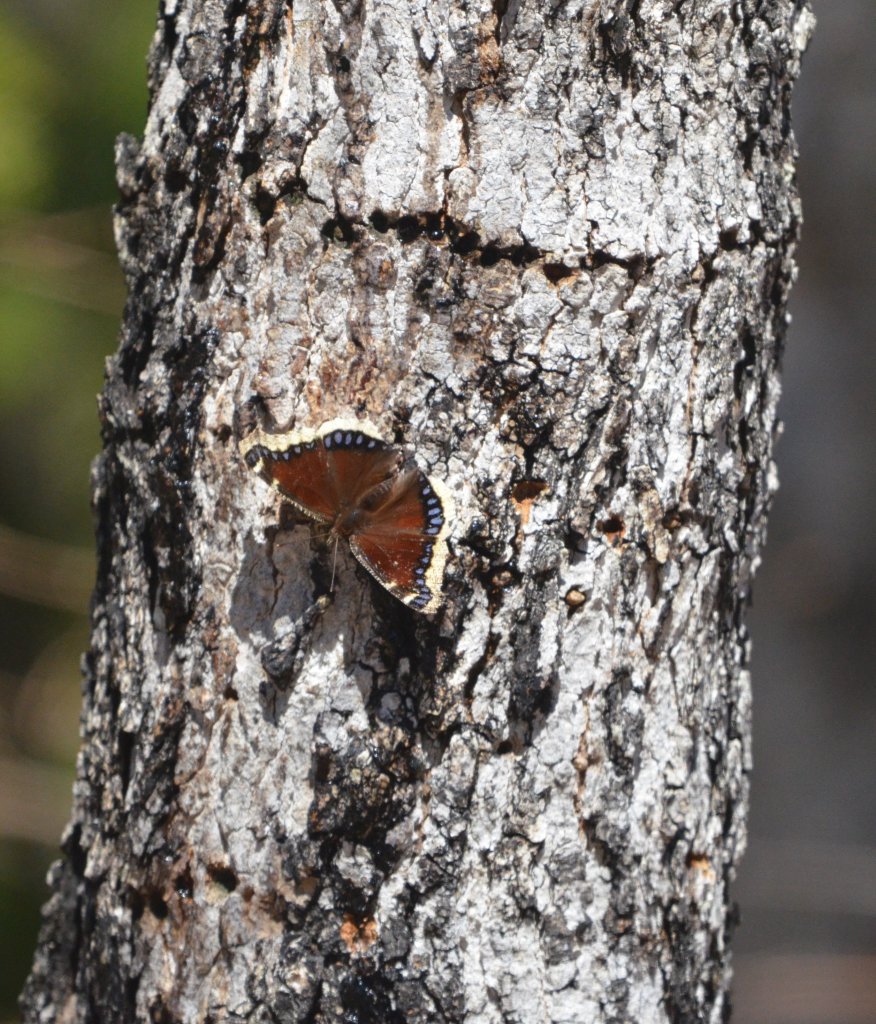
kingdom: Animalia
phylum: Arthropoda
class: Insecta
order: Lepidoptera
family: Nymphalidae
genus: Nymphalis
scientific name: Nymphalis antiopa
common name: Mourning Cloak
